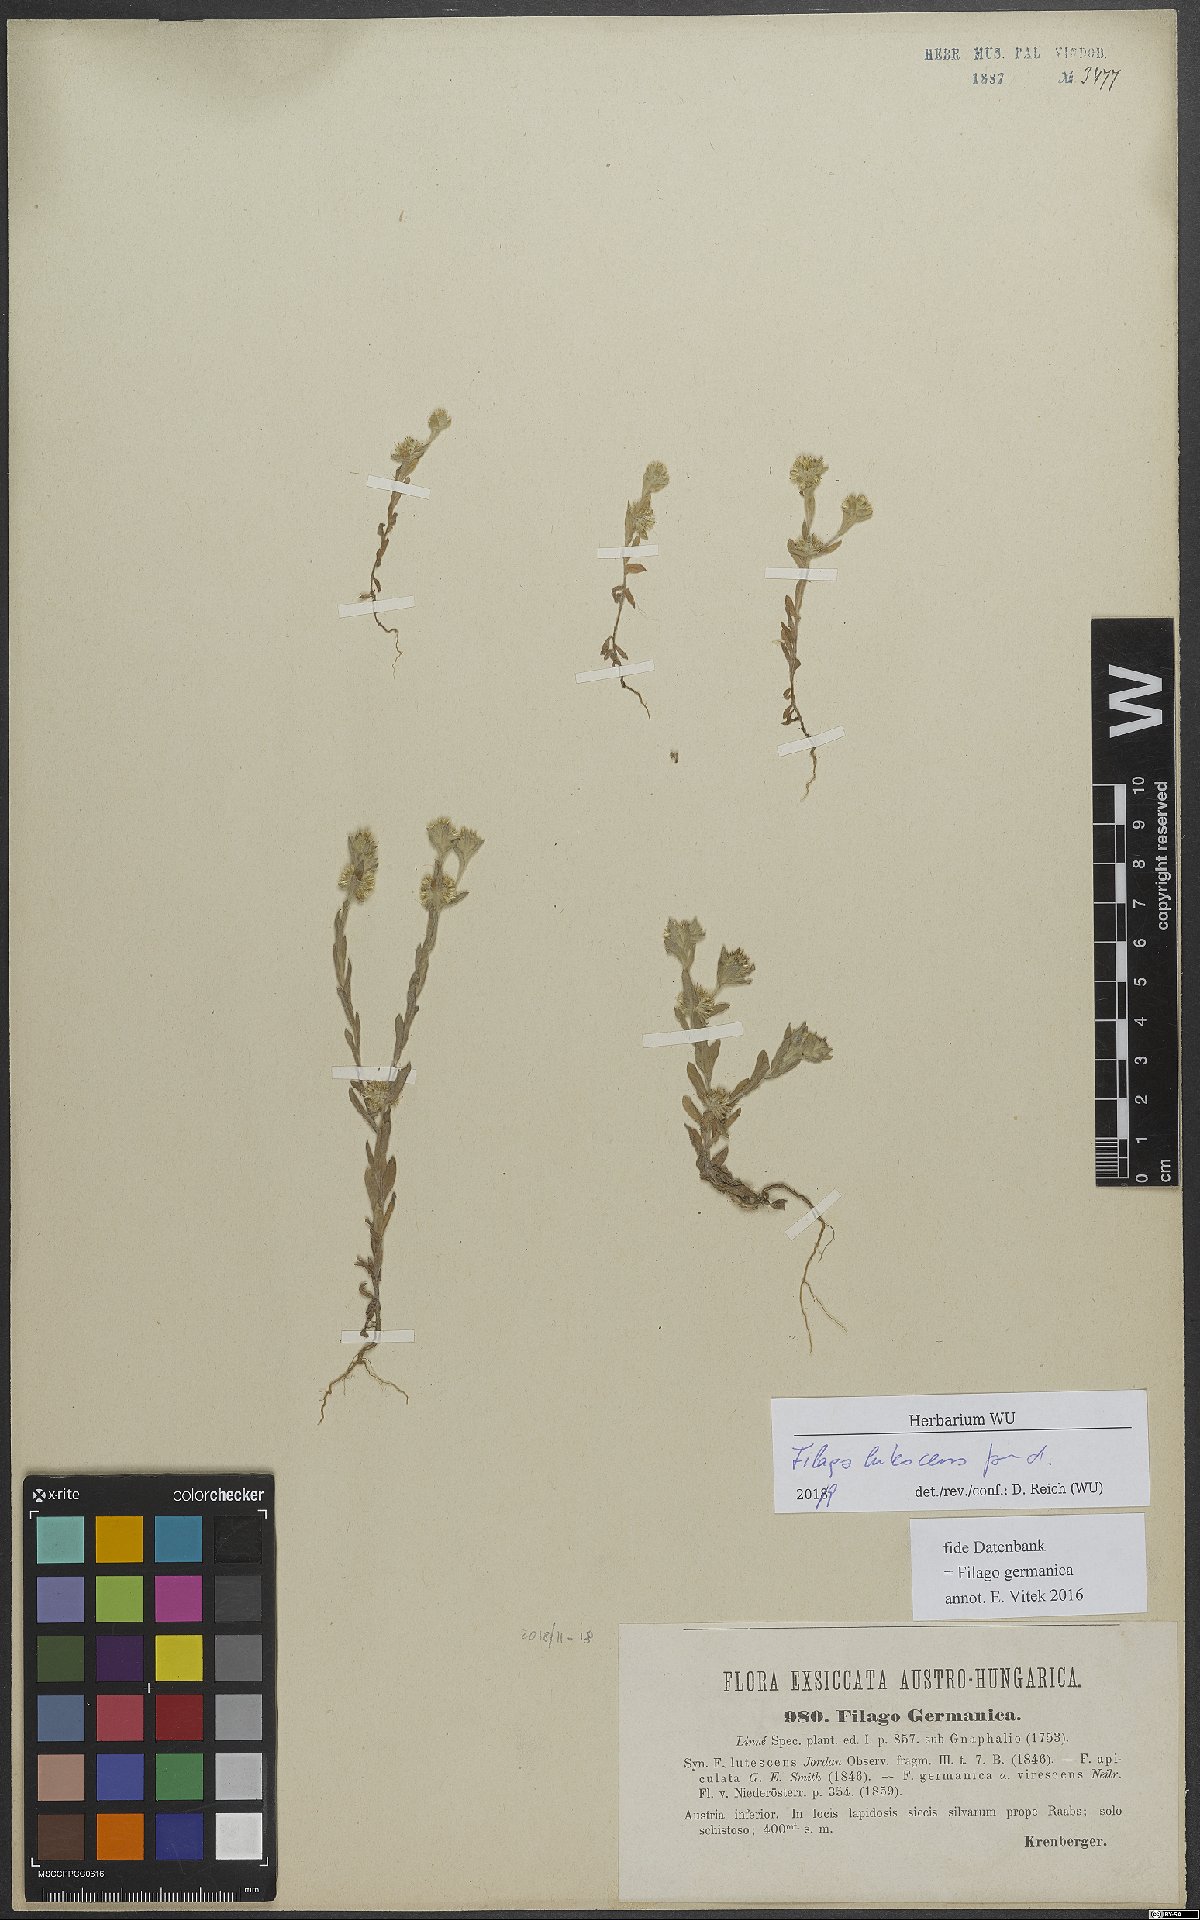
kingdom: Plantae
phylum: Tracheophyta
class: Magnoliopsida
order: Asterales
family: Asteraceae
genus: Filago
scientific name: Filago lutescens
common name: Red-tipped cudweed
